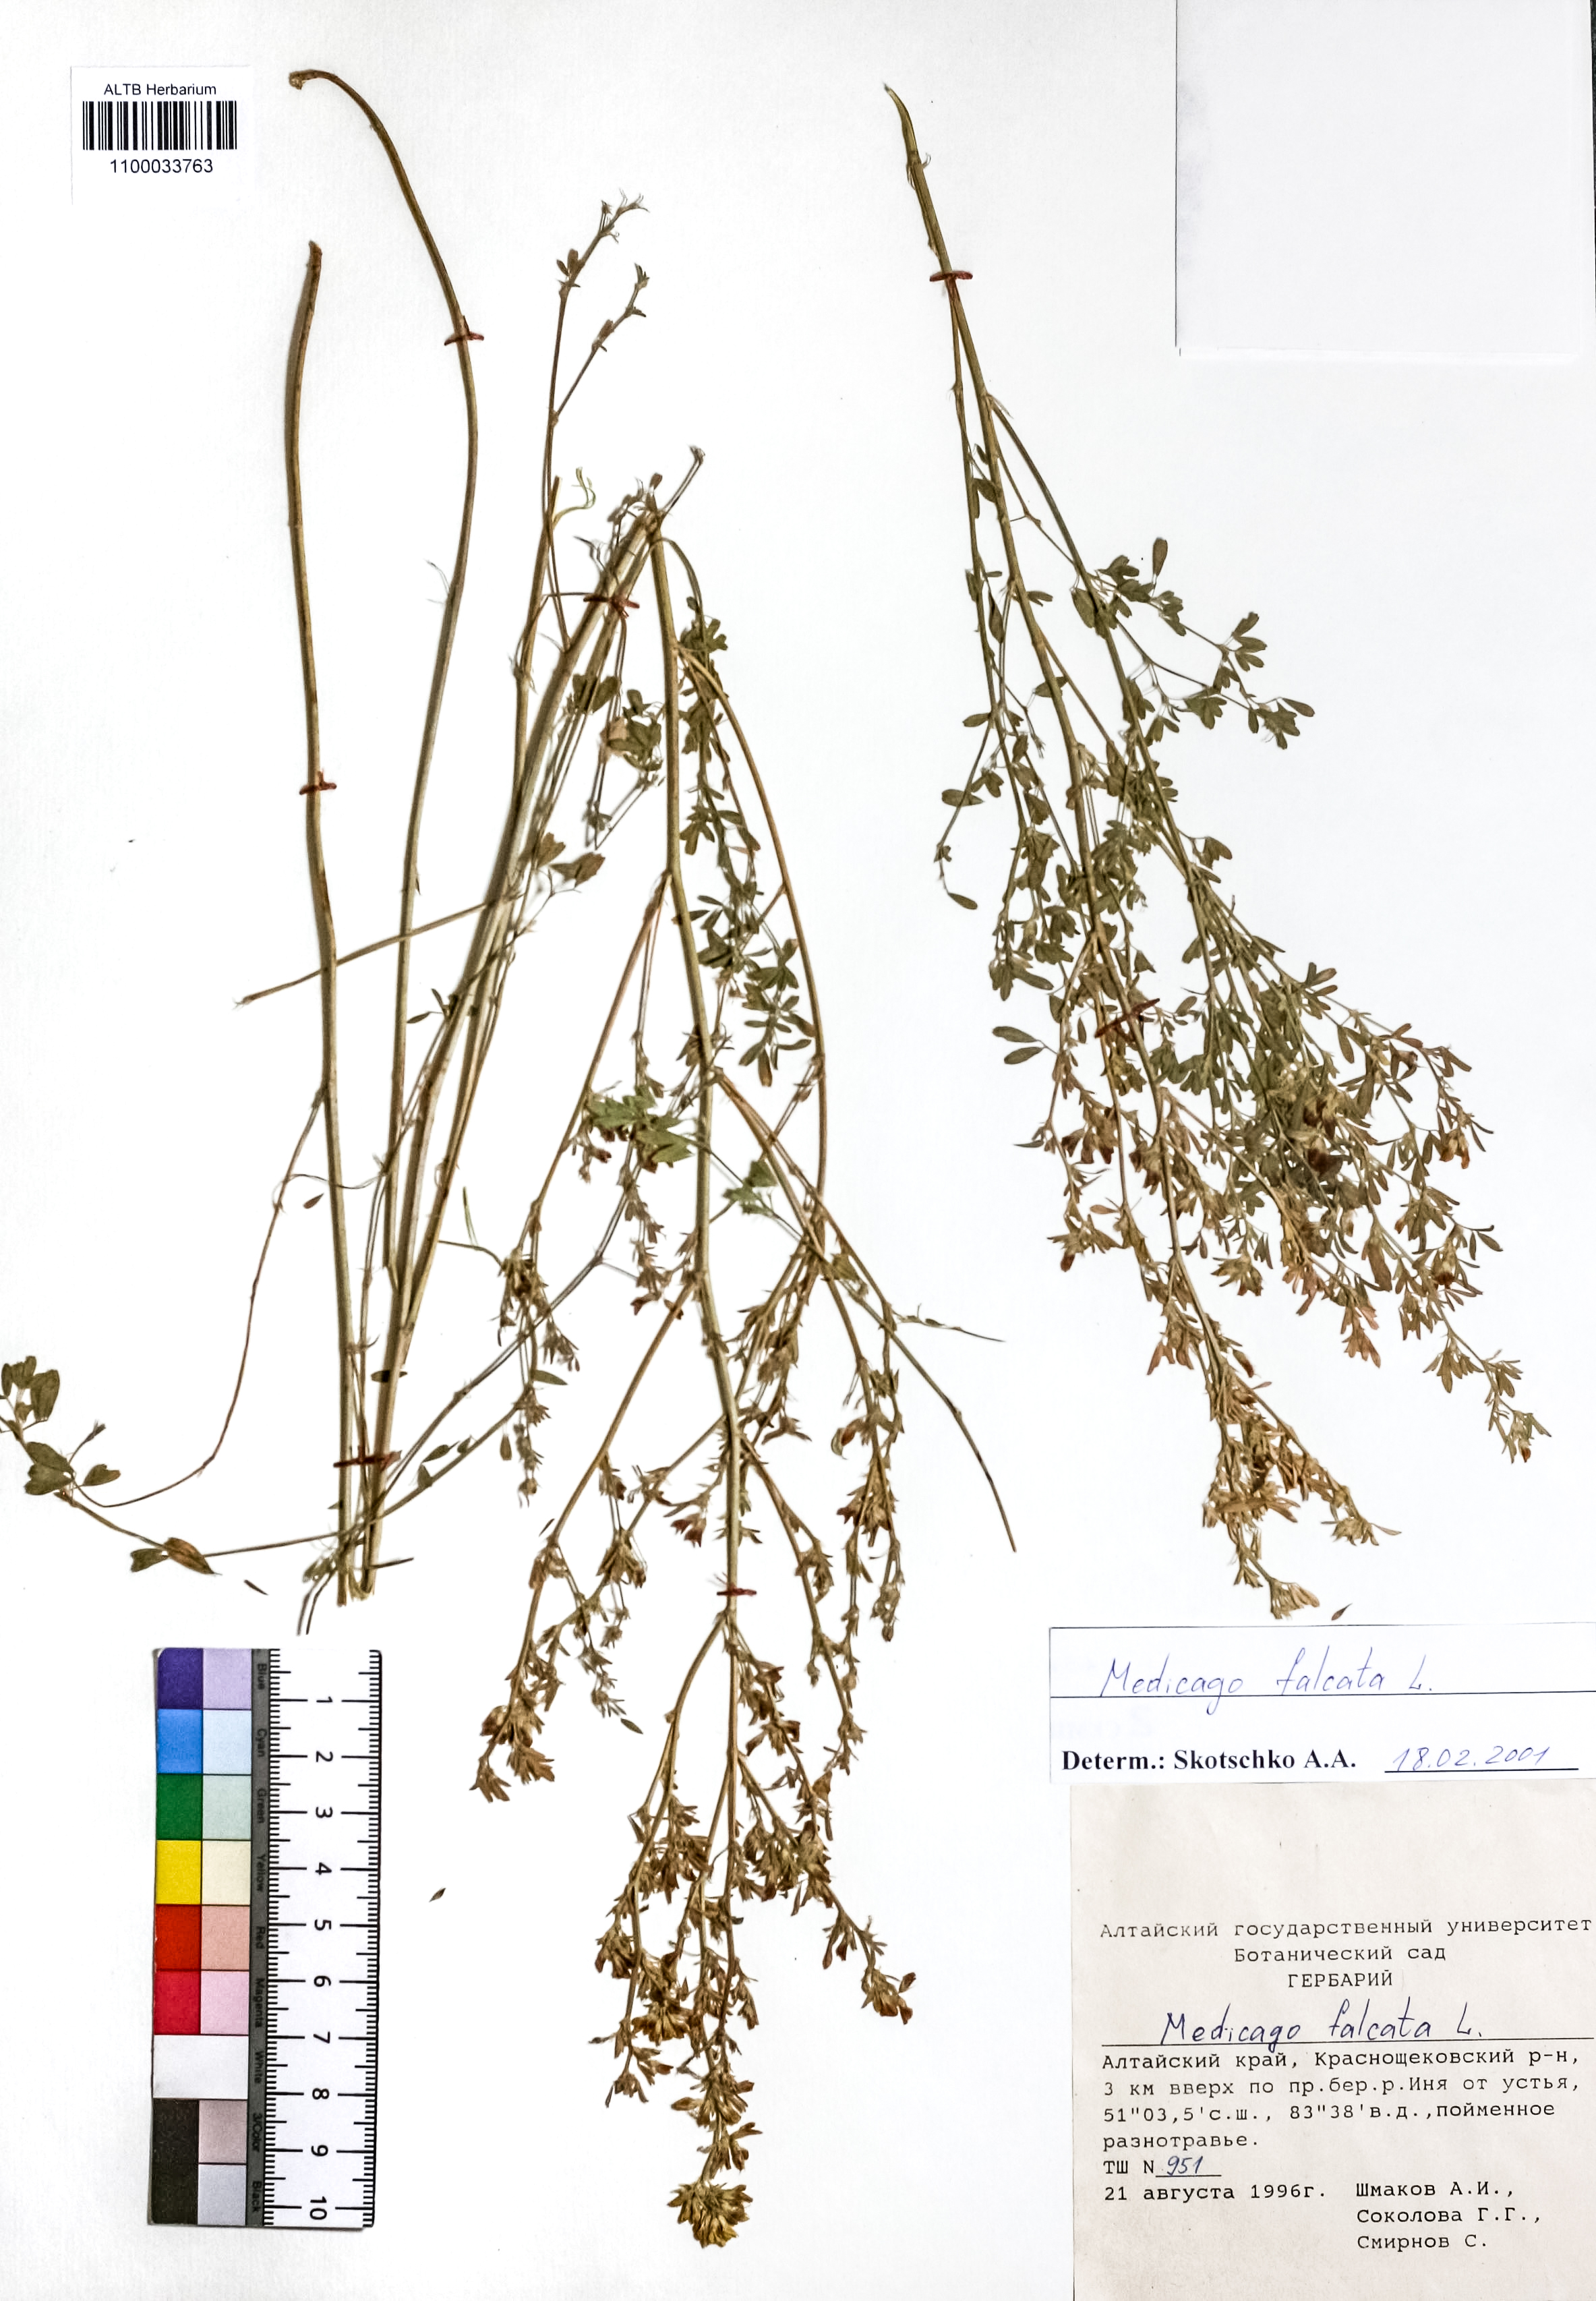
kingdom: Plantae
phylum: Tracheophyta
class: Magnoliopsida
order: Fabales
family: Fabaceae
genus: Medicago
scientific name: Medicago falcata
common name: Sickle medick
